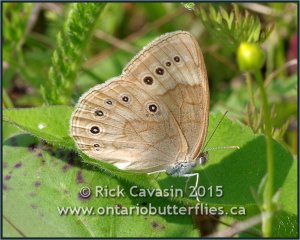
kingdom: Animalia
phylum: Arthropoda
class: Insecta
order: Lepidoptera
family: Nymphalidae
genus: Lethe
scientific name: Lethe eurydice
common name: Eyed Brown
